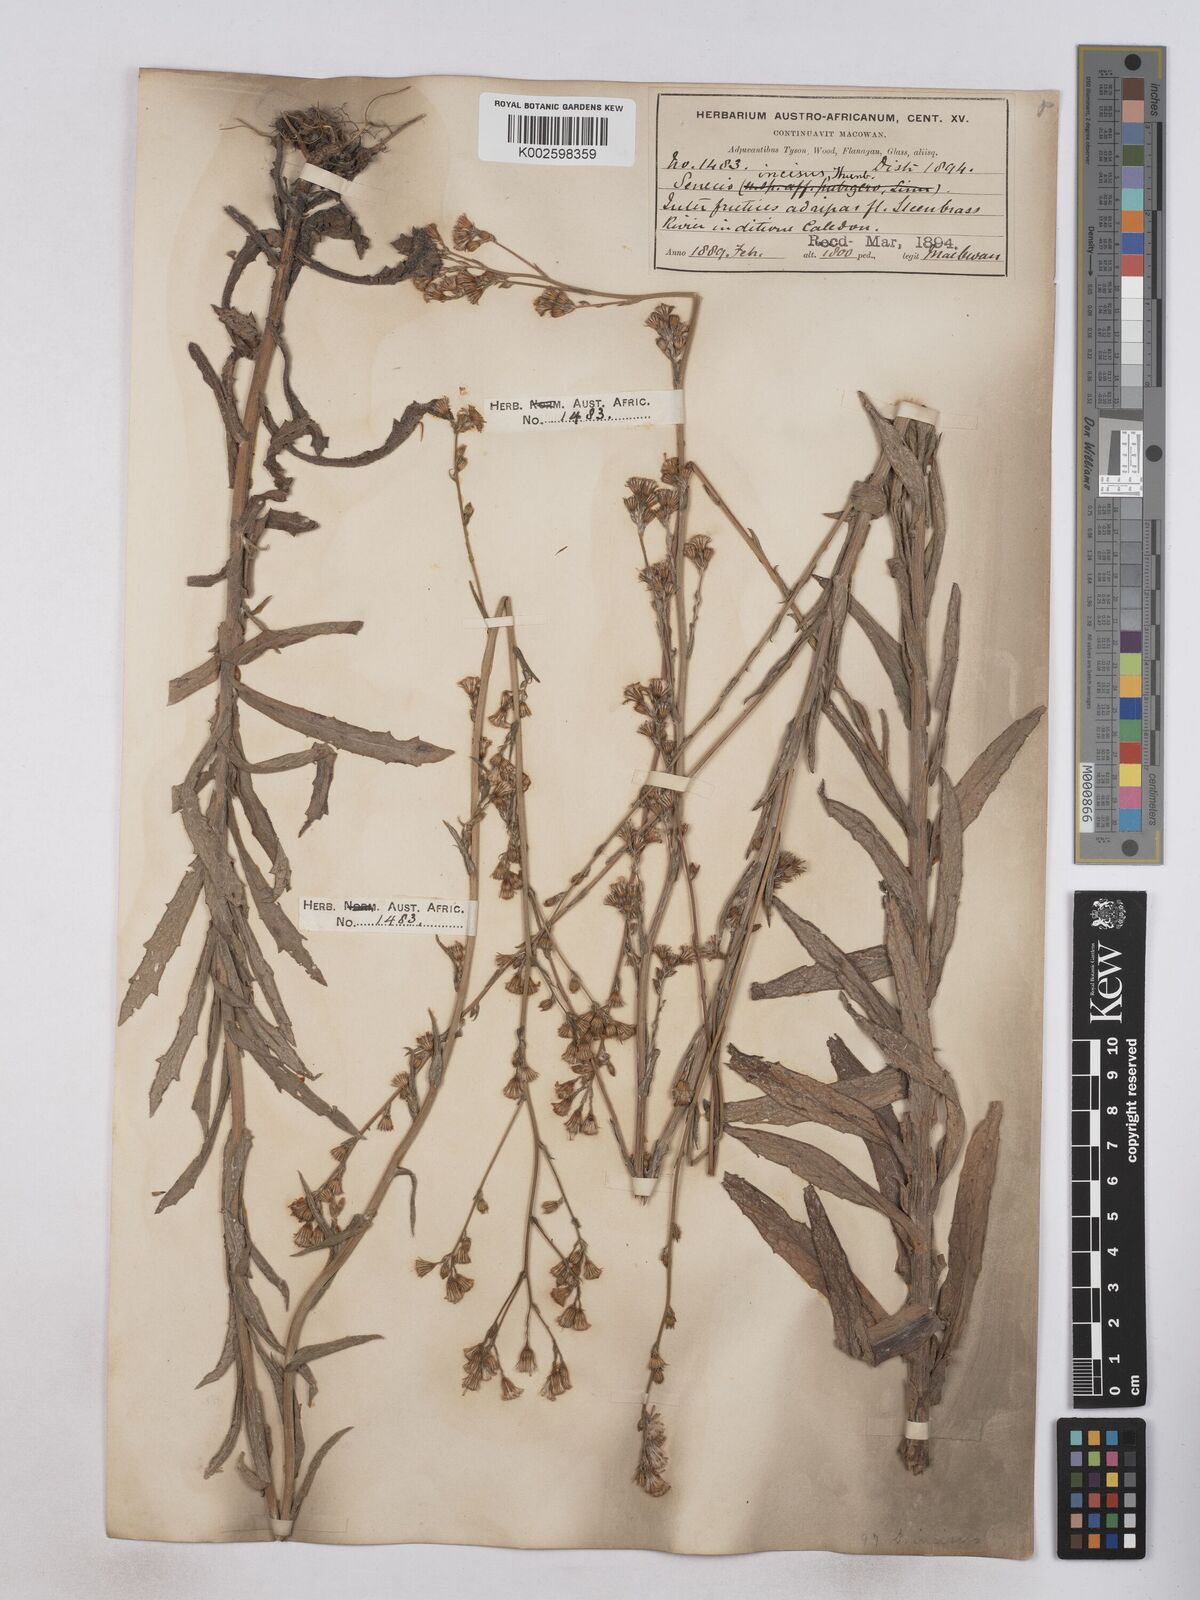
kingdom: Plantae
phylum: Tracheophyta
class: Magnoliopsida
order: Asterales
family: Asteraceae
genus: Senecio
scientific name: Senecio phalachrolaenus
